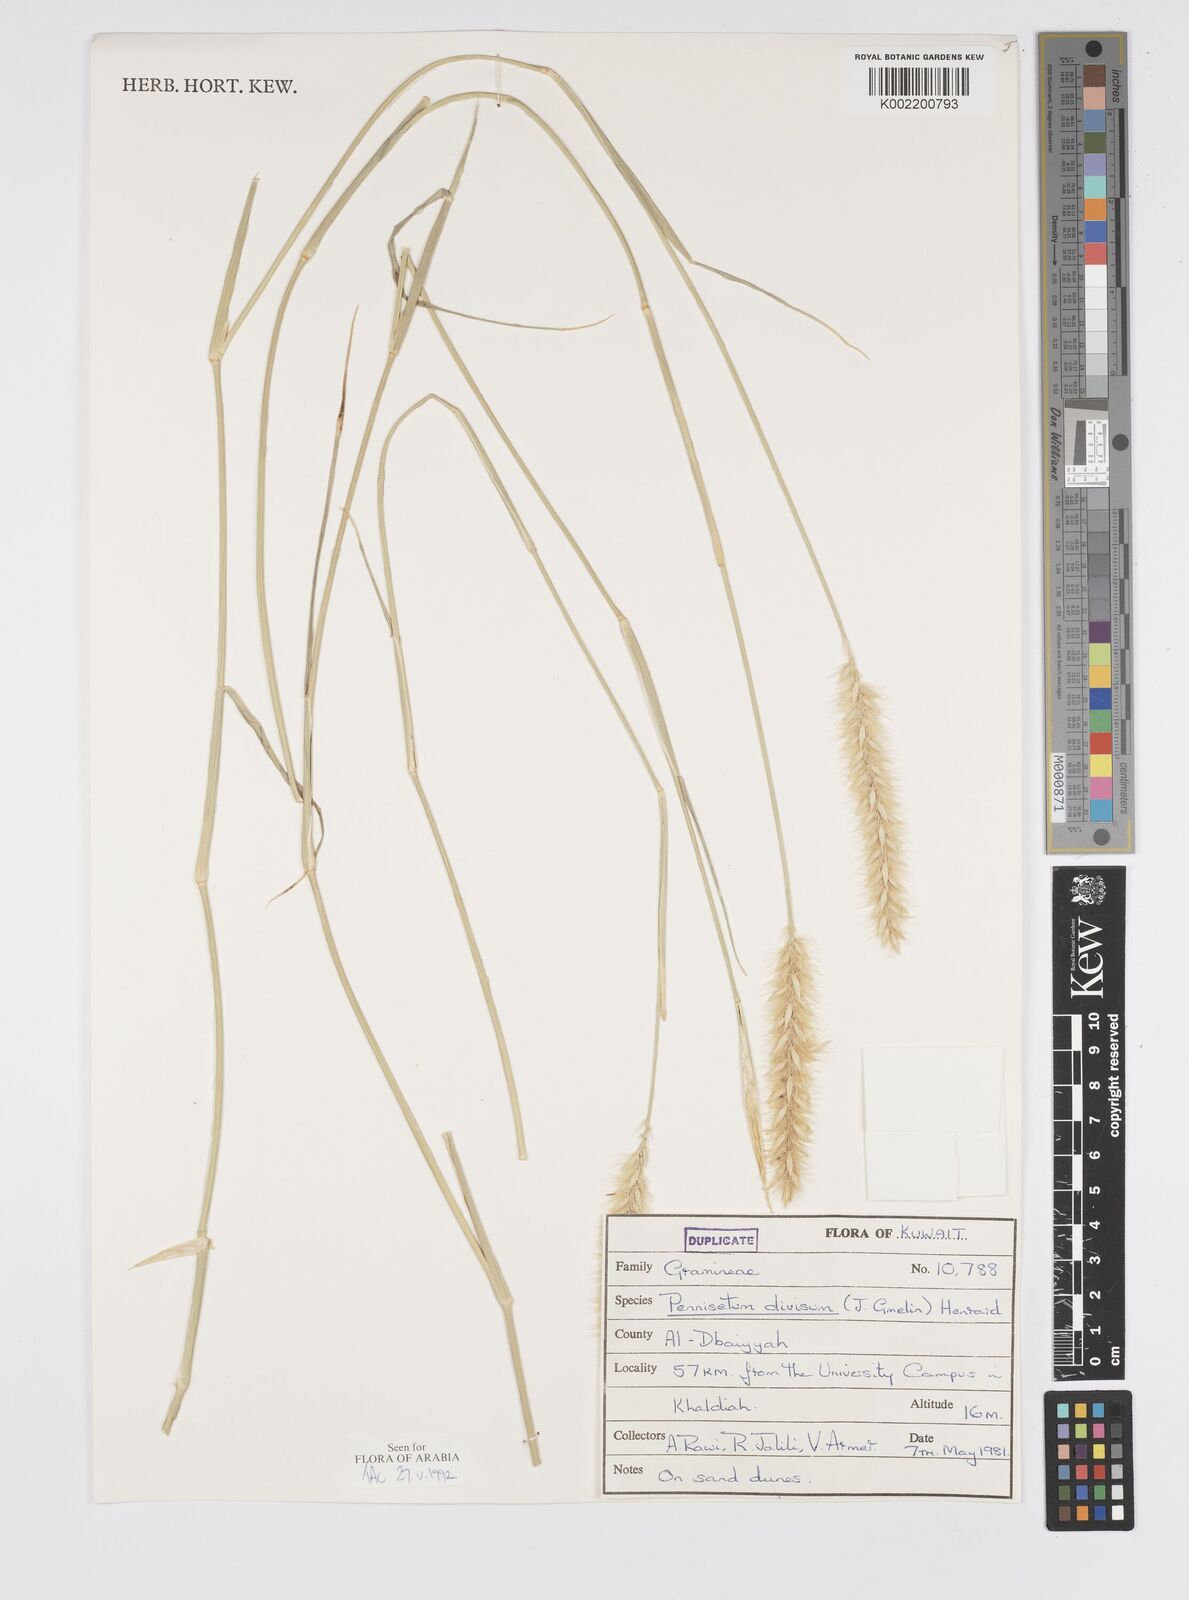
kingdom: Plantae
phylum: Tracheophyta
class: Liliopsida
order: Poales
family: Poaceae
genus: Cenchrus
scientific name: Cenchrus divisus
